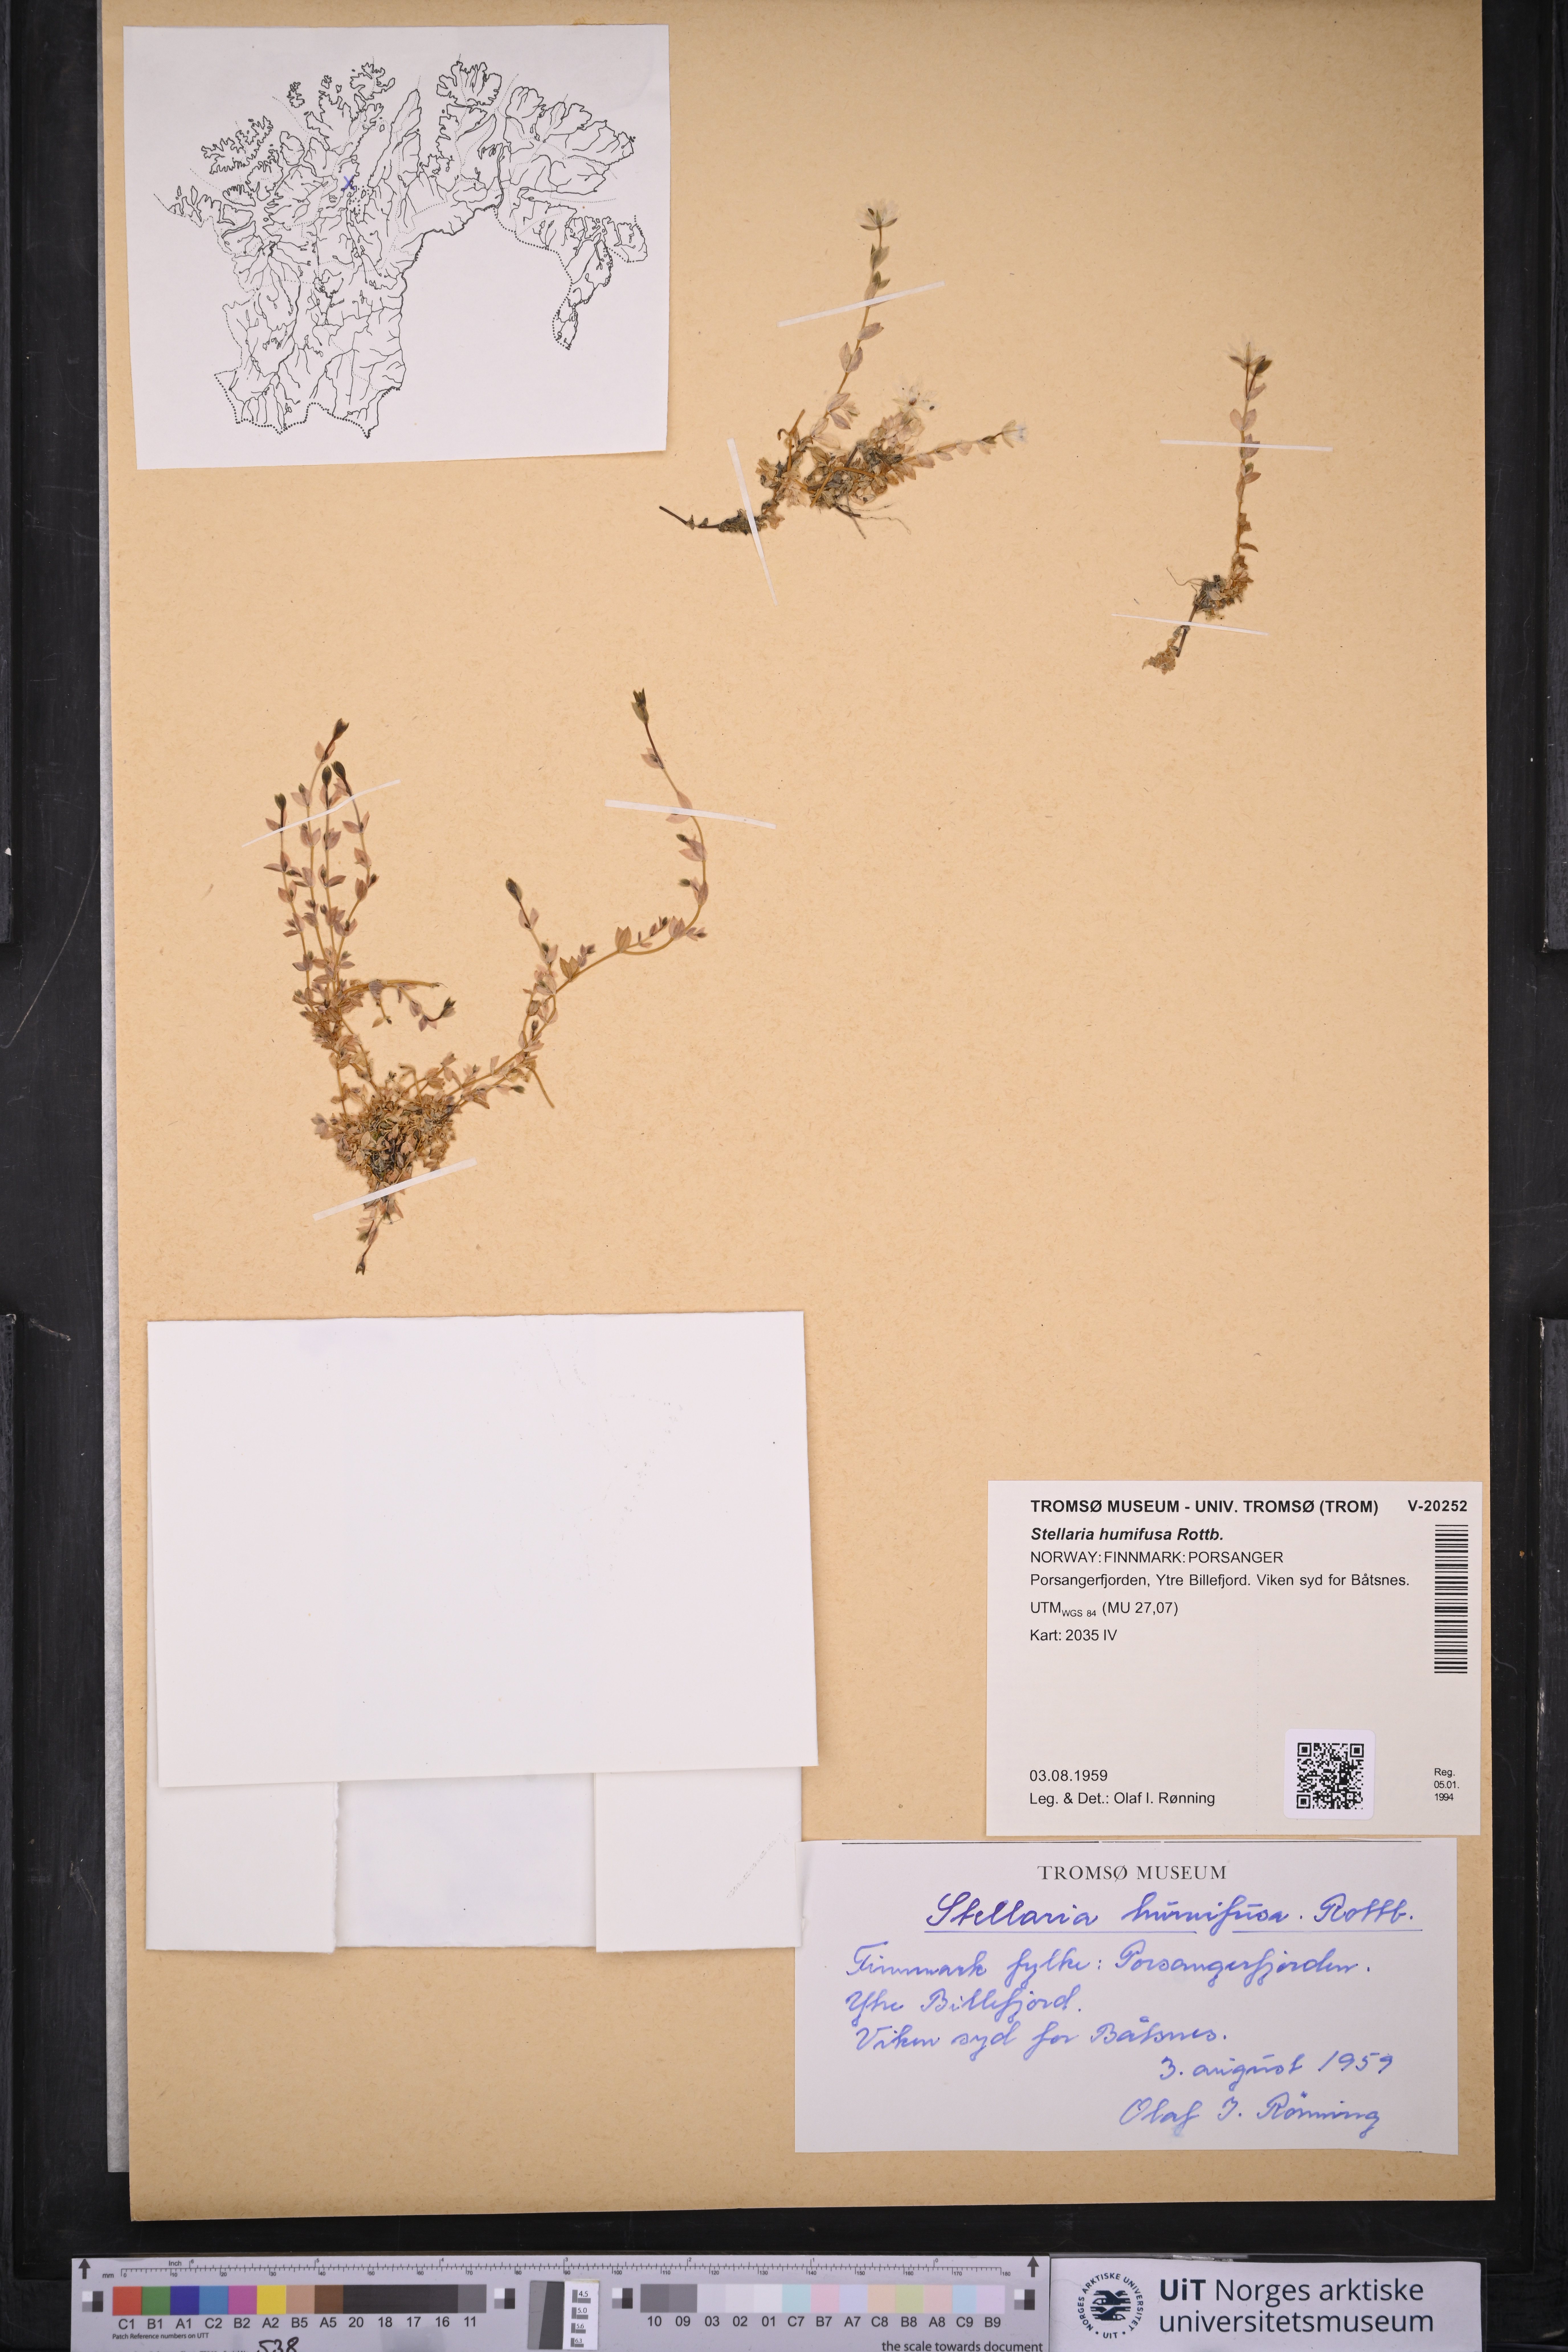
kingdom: Plantae
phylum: Tracheophyta
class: Magnoliopsida
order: Caryophyllales
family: Caryophyllaceae
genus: Stellaria
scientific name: Stellaria humifusa
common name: Creeping starwort
